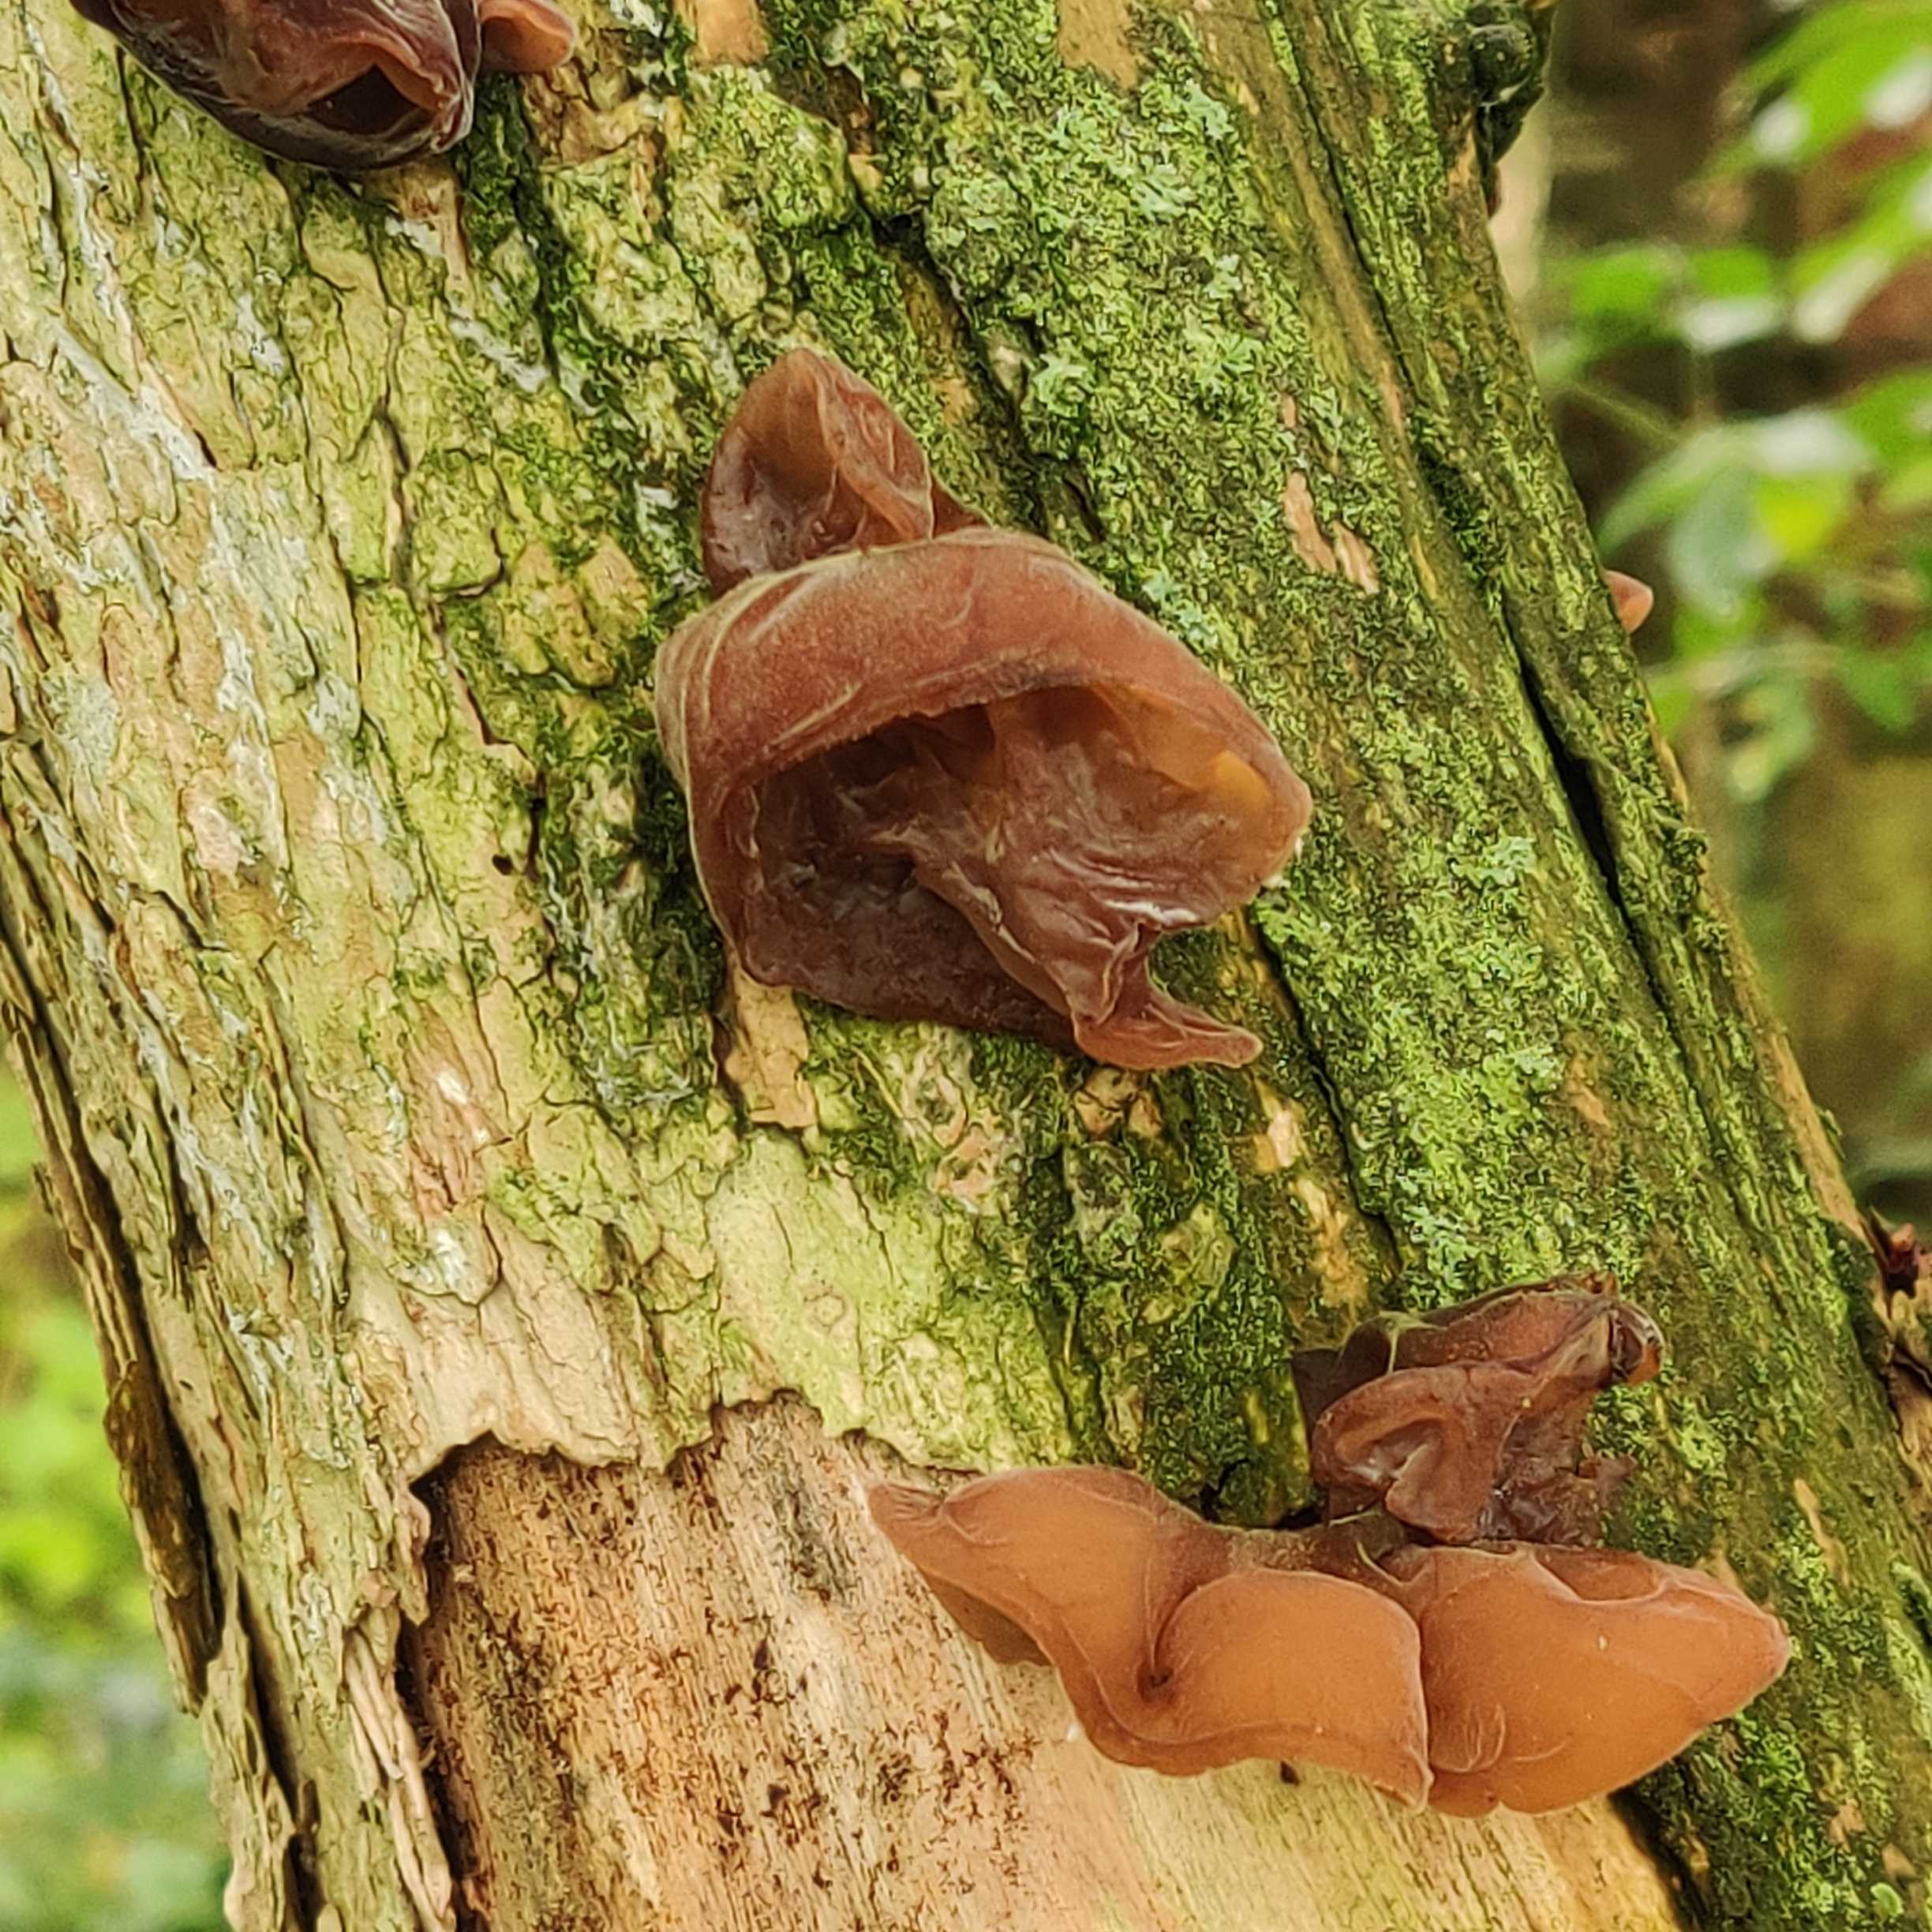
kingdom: Fungi
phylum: Basidiomycota
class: Agaricomycetes
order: Auriculariales
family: Auriculariaceae
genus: Auricularia
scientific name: Auricularia auricula-judae
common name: almindelig judasøre
